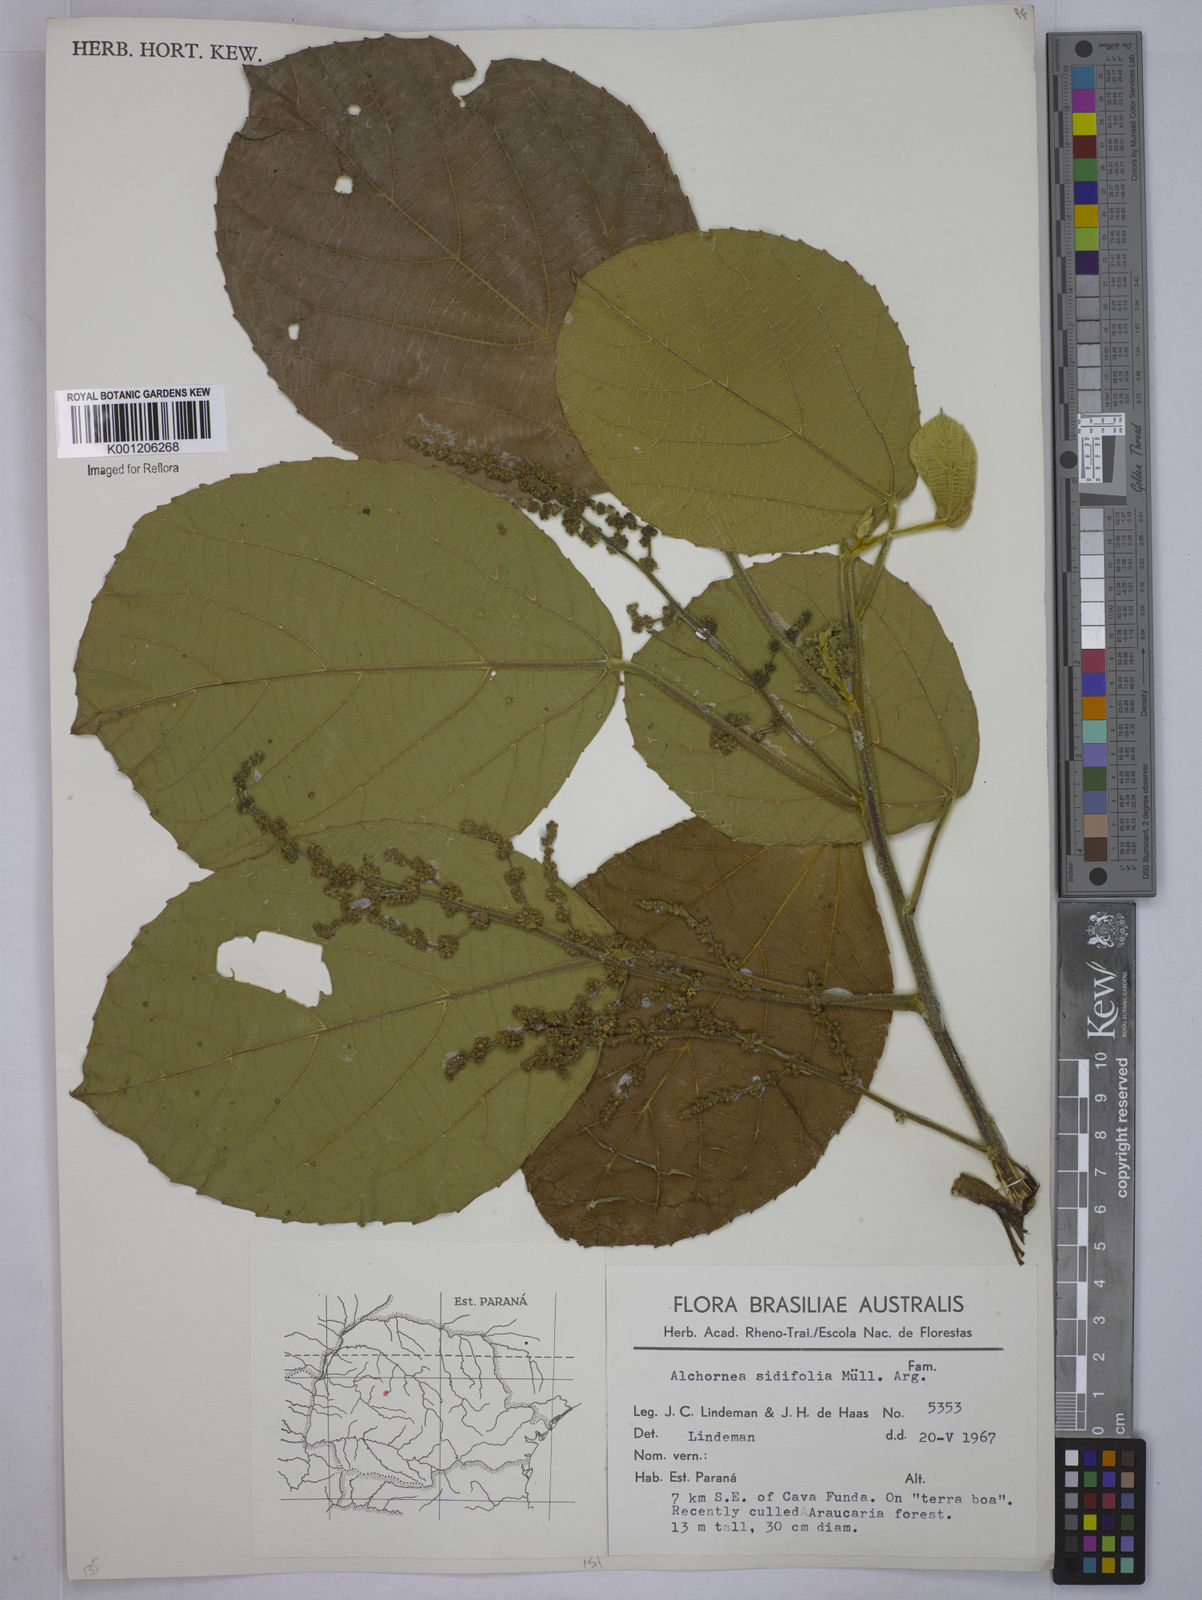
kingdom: Plantae
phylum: Tracheophyta
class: Magnoliopsida
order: Malpighiales
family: Euphorbiaceae
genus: Alchornea
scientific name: Alchornea
